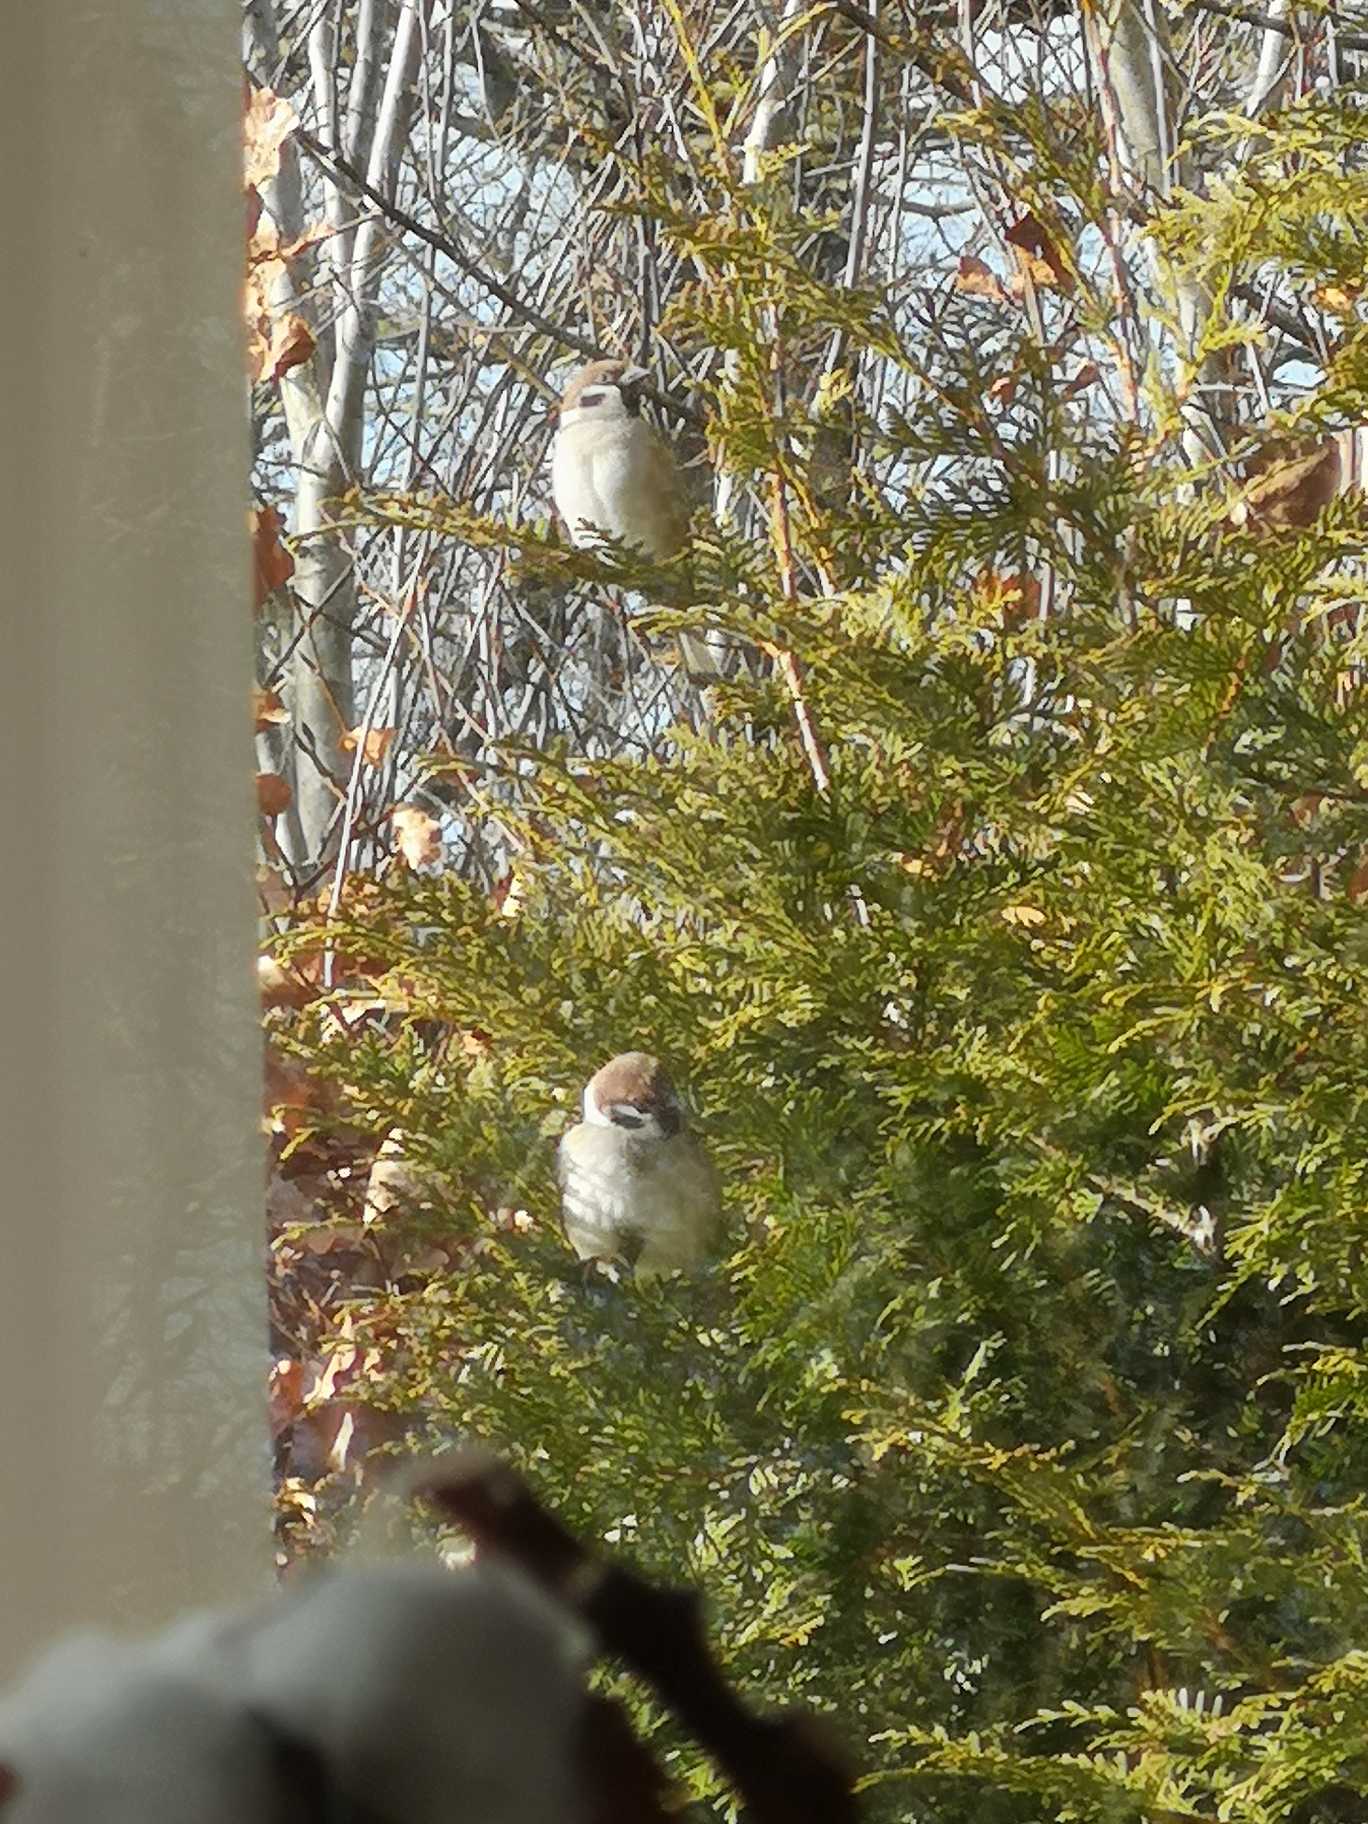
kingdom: Animalia
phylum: Chordata
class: Aves
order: Passeriformes
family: Passeridae
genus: Passer
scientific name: Passer montanus
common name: Skovspurv
